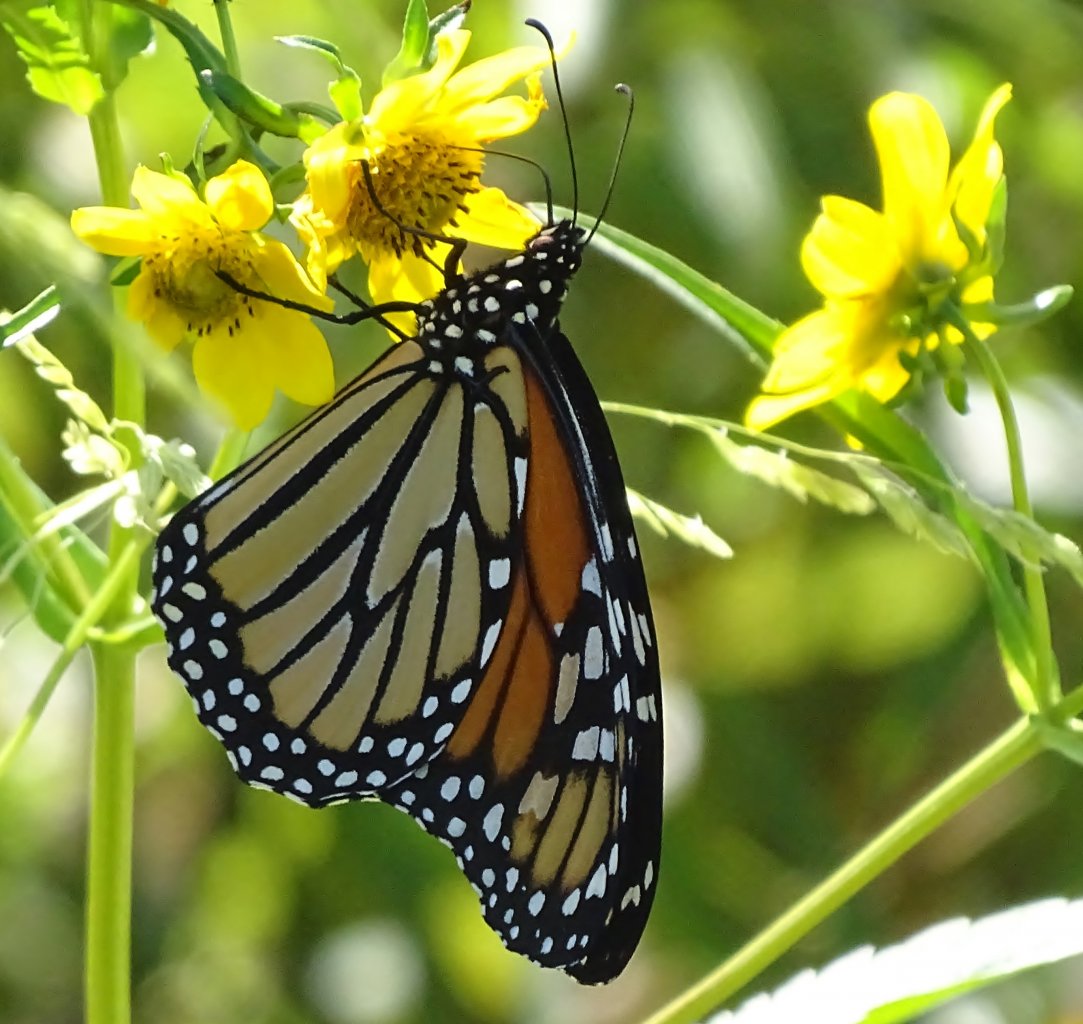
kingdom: Animalia
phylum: Arthropoda
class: Insecta
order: Lepidoptera
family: Nymphalidae
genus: Danaus
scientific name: Danaus plexippus
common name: Monarch
